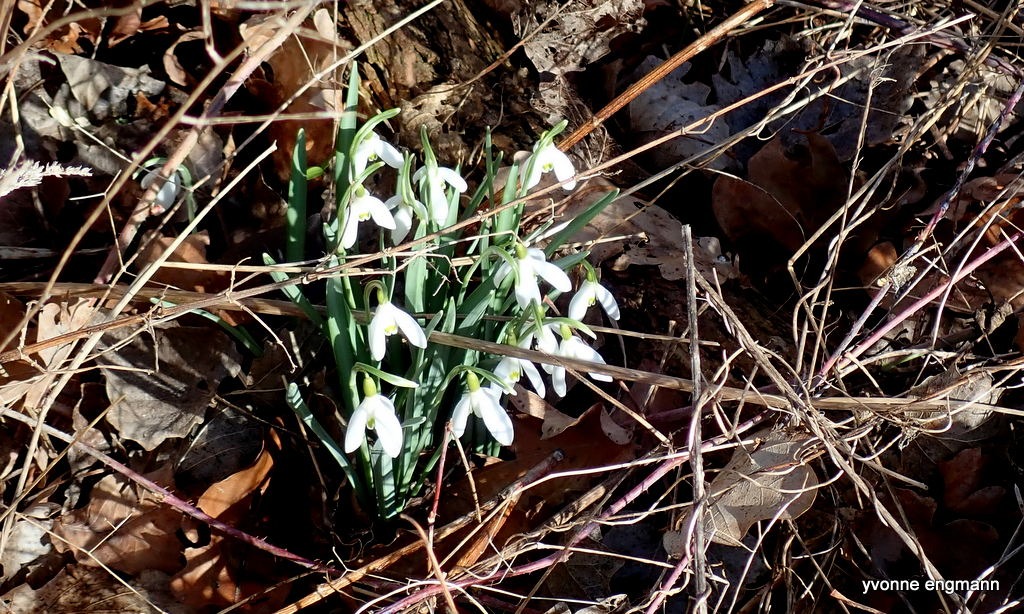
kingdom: Plantae
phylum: Tracheophyta
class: Liliopsida
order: Asparagales
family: Amaryllidaceae
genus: Galanthus
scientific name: Galanthus nivalis
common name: Vintergæk
